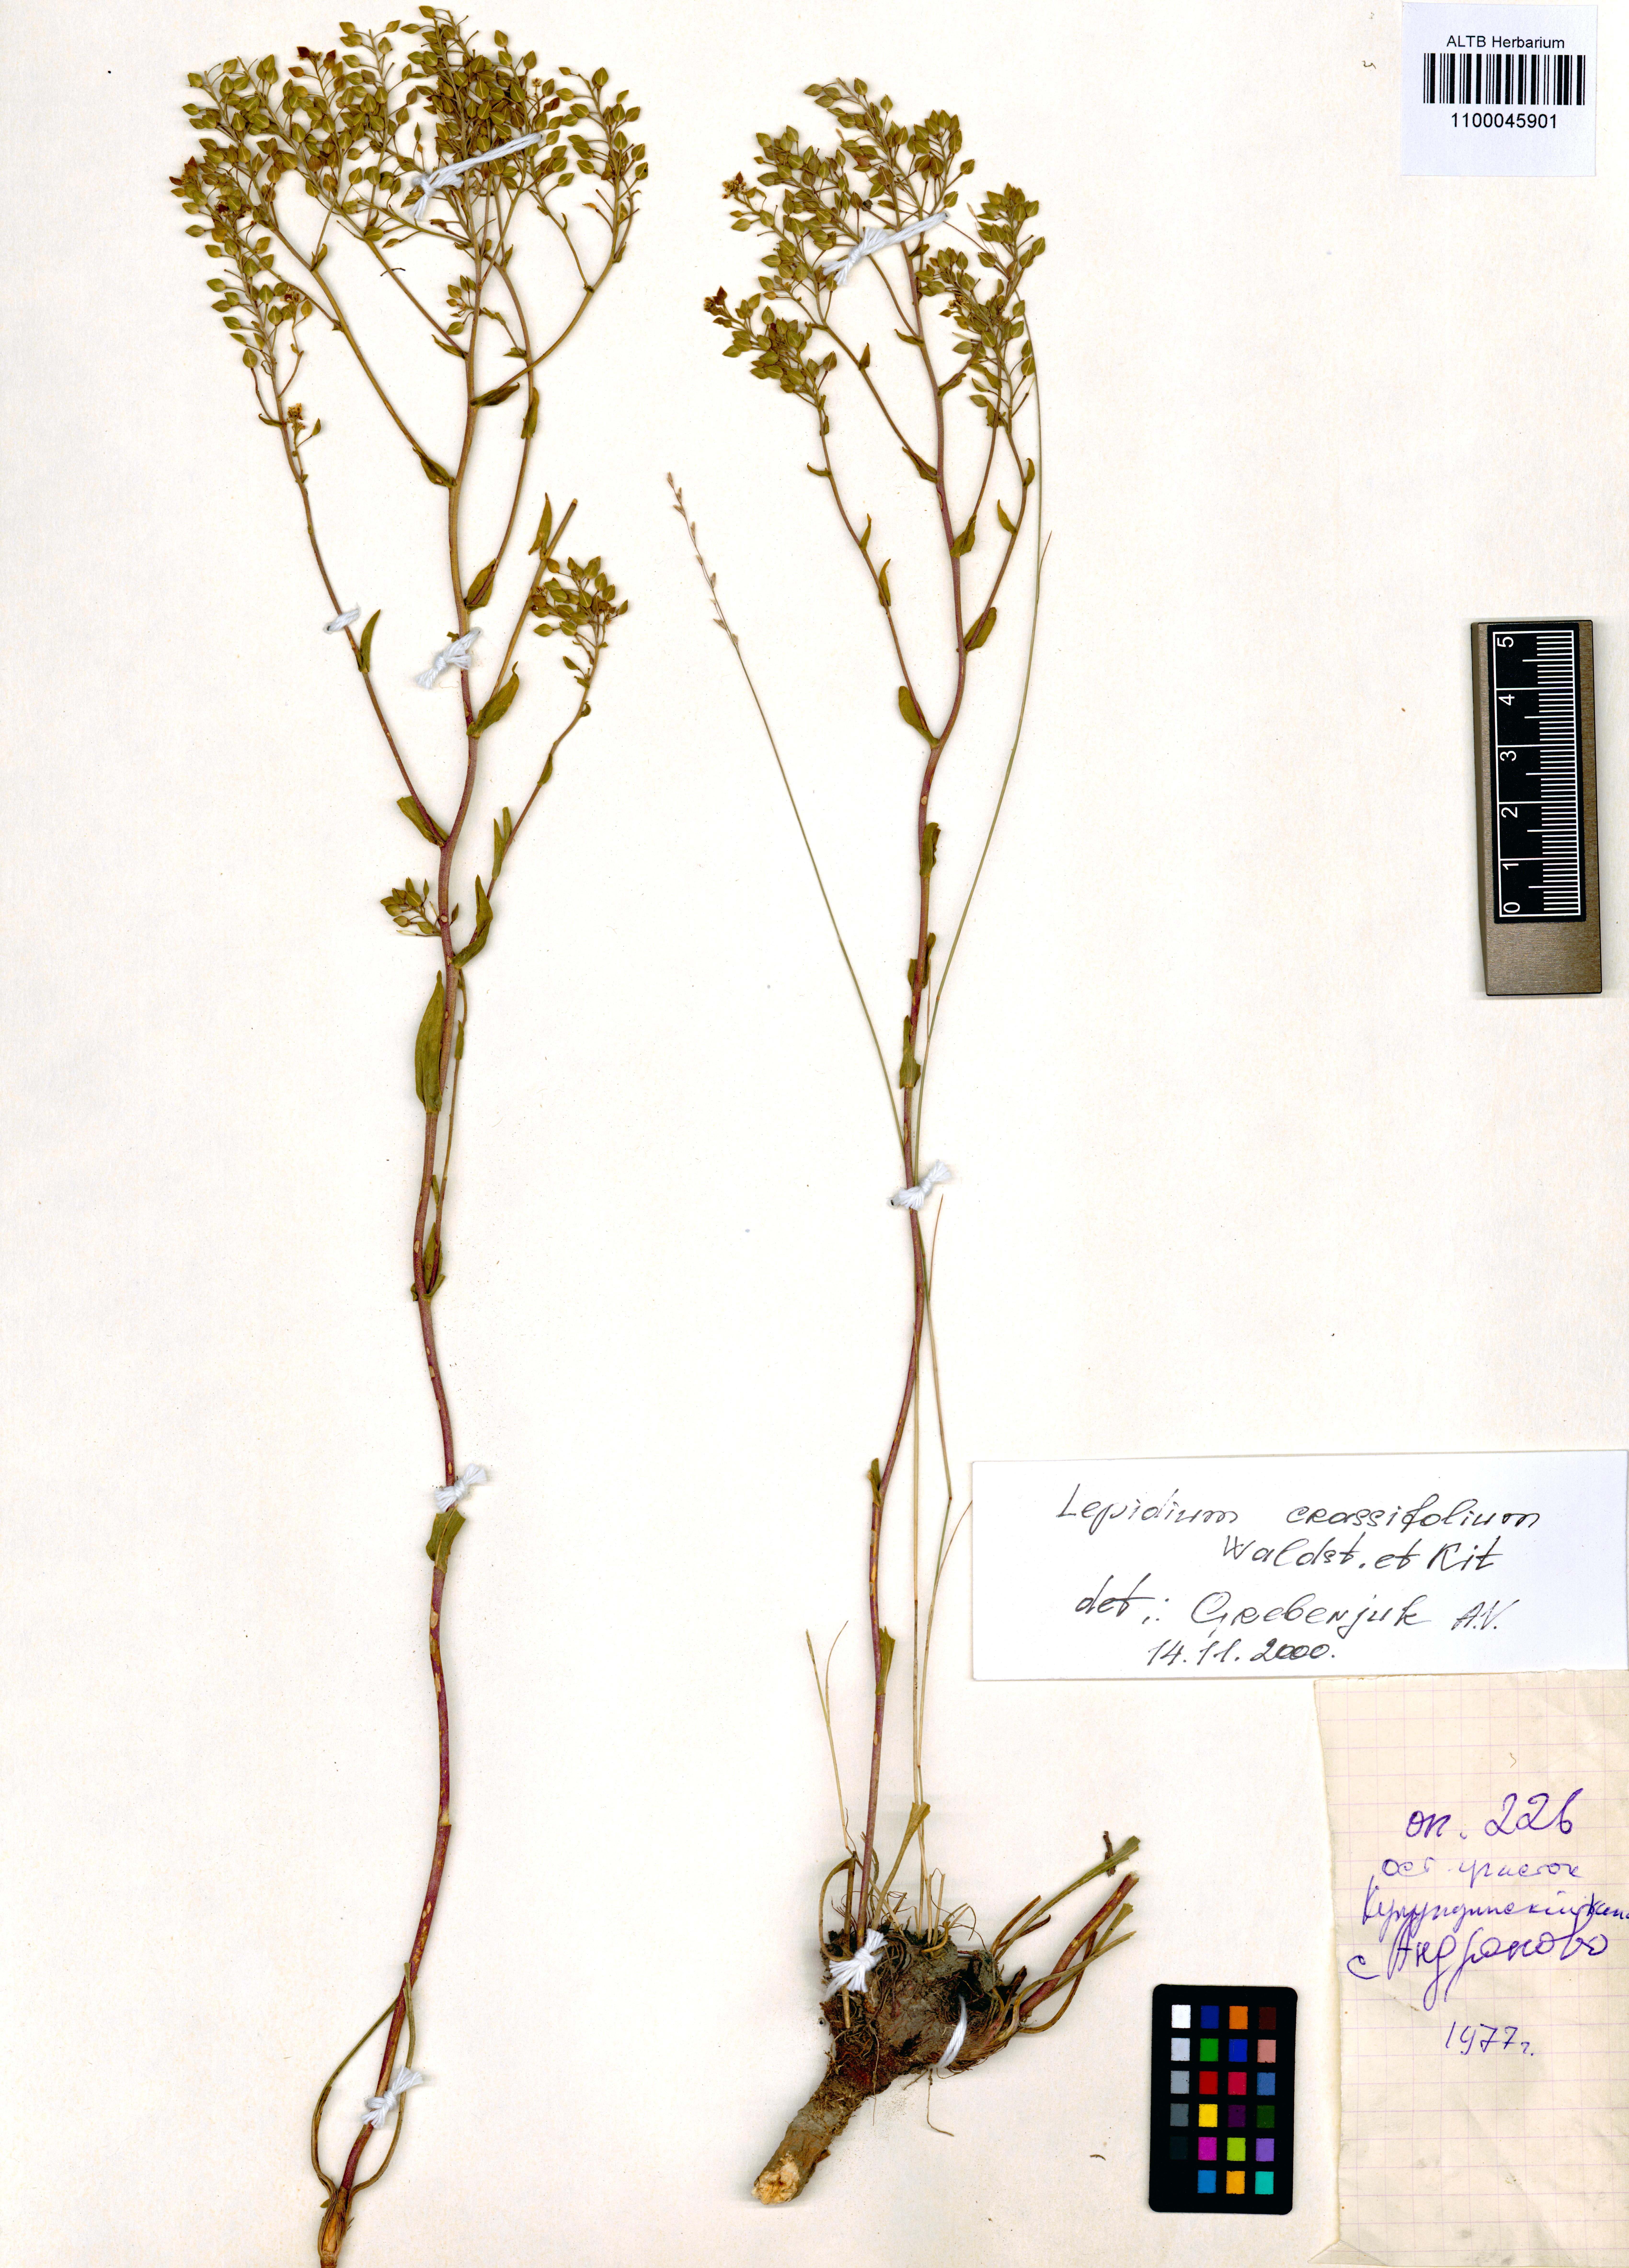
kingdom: Plantae
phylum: Tracheophyta
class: Magnoliopsida
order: Brassicales
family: Brassicaceae
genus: Lepidium
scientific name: Lepidium cartilagineum
